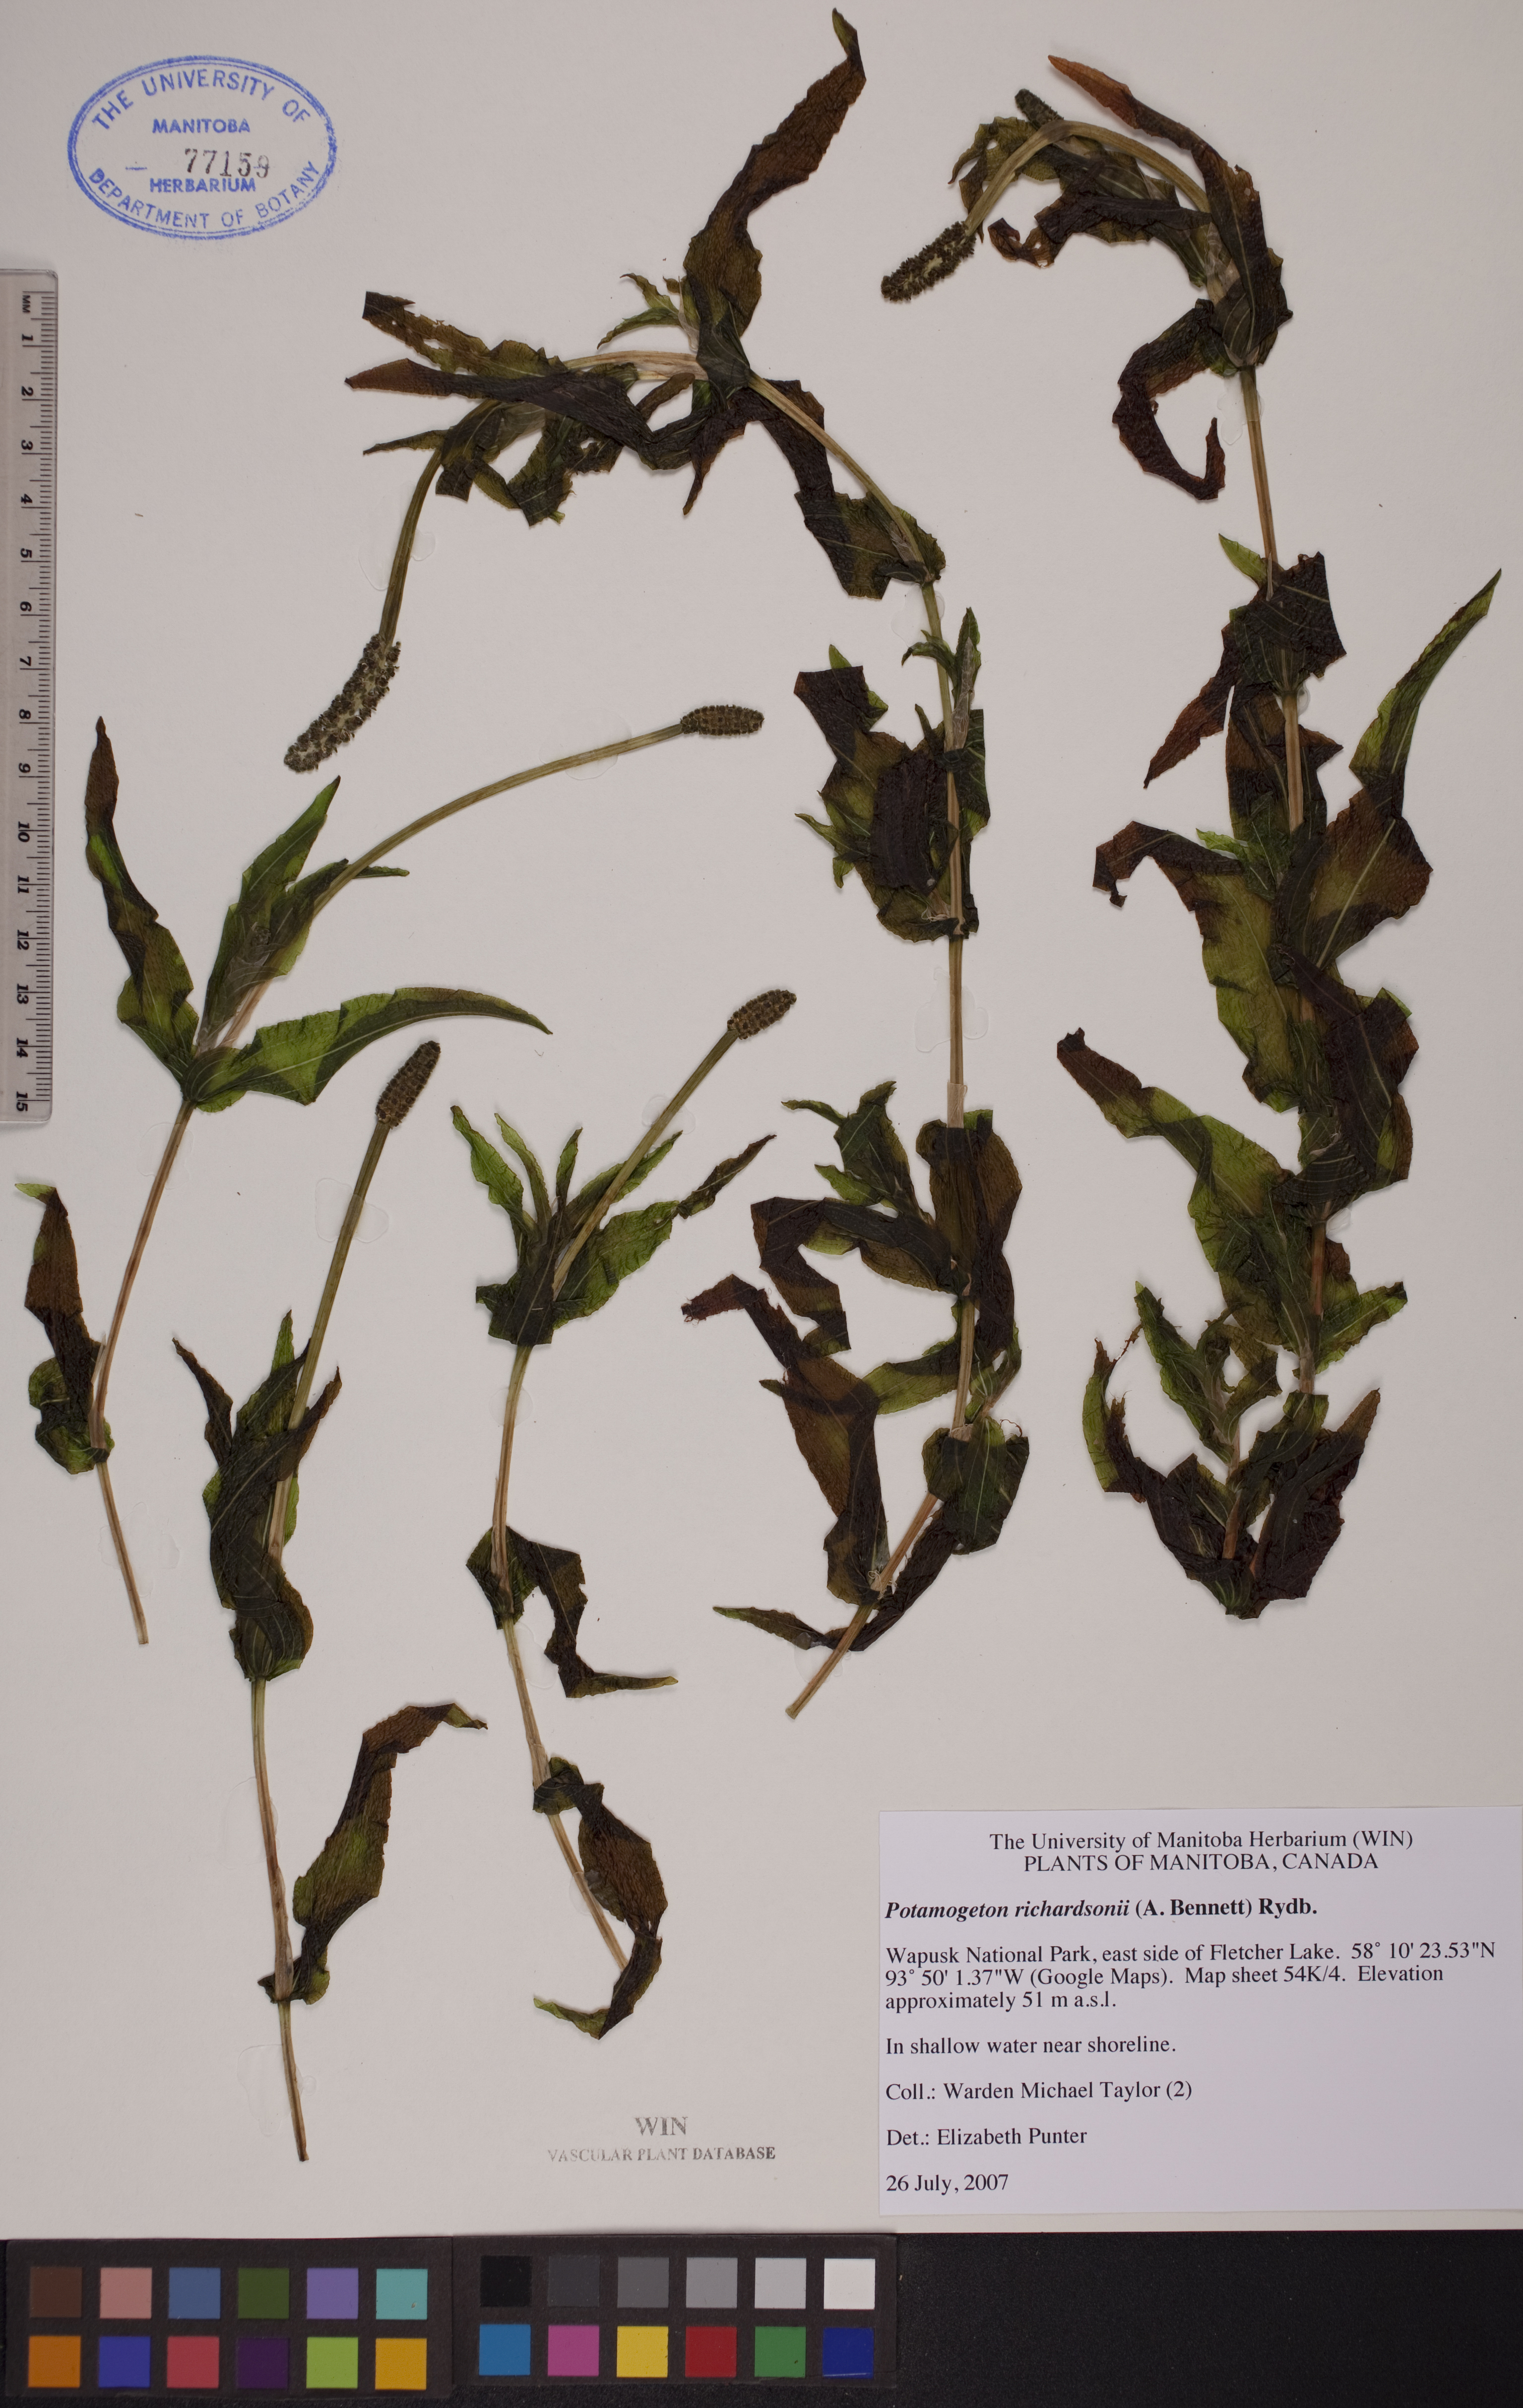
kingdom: Plantae
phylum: Tracheophyta
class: Liliopsida
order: Alismatales
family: Potamogetonaceae
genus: Potamogeton
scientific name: Potamogeton richardsonii
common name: Richardson's pondweed
